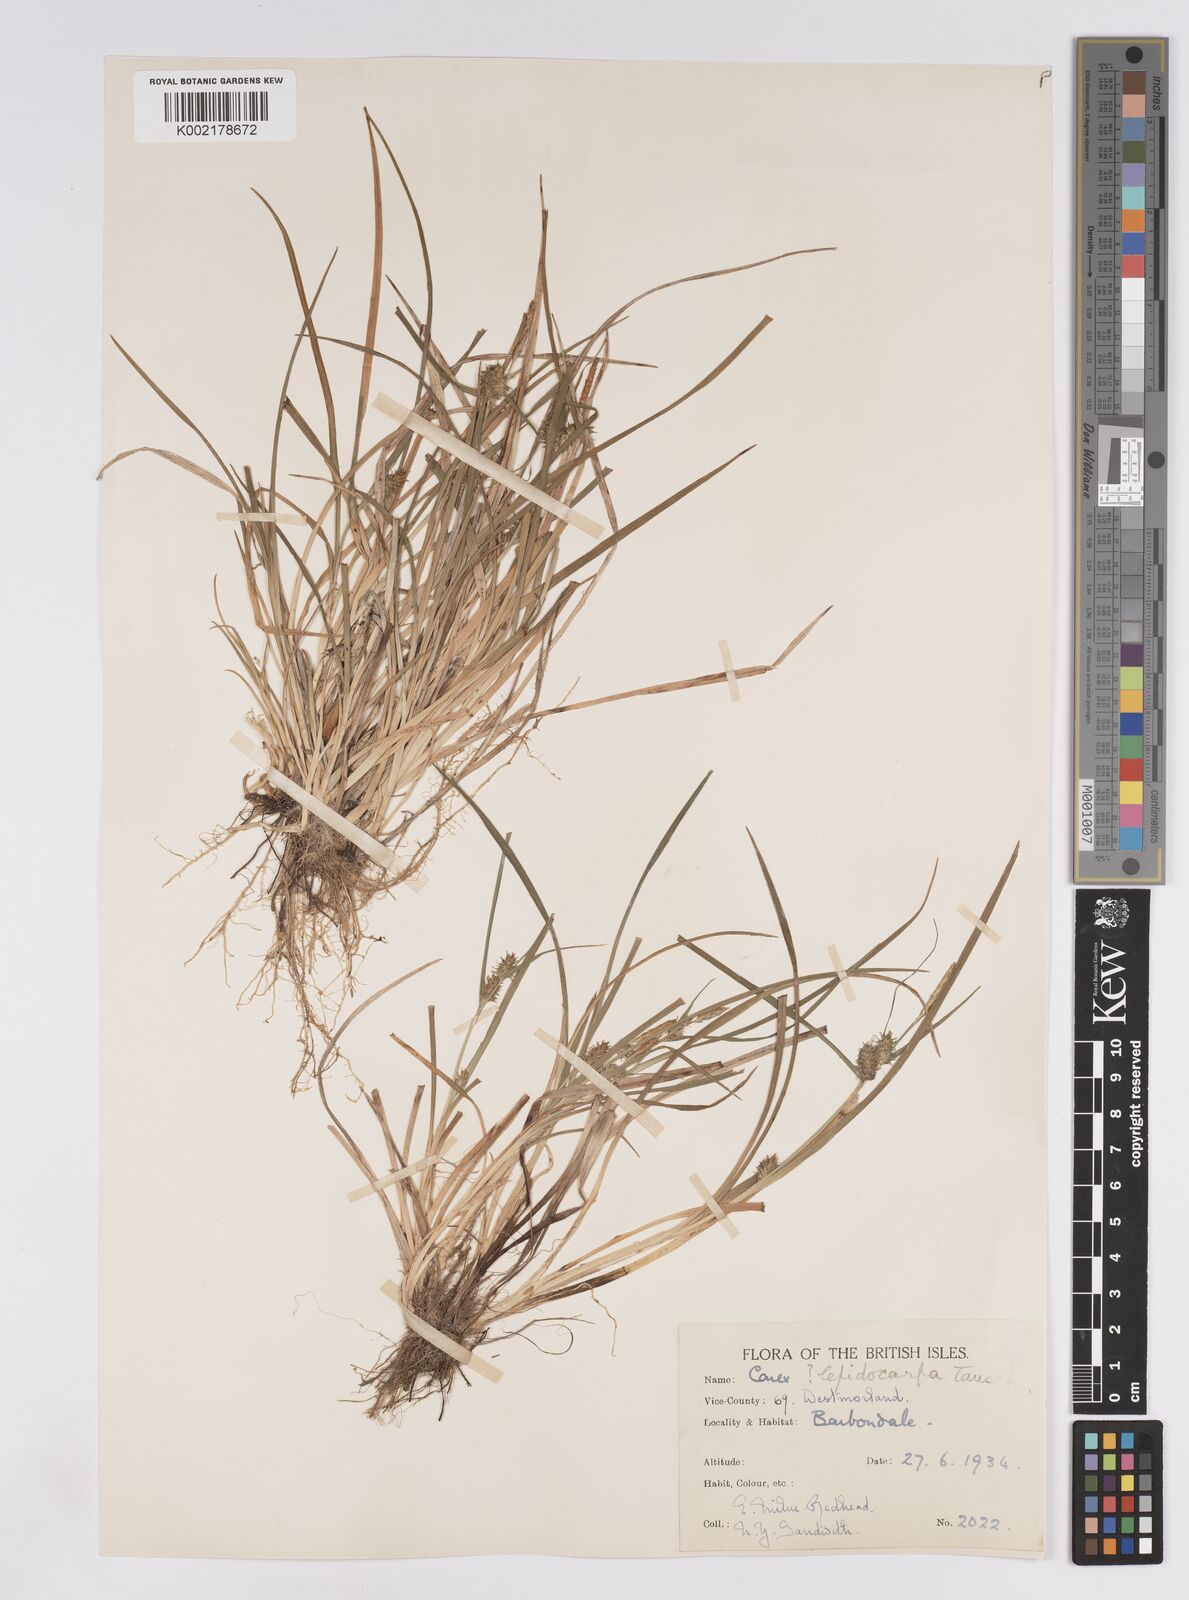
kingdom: Plantae
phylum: Tracheophyta
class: Liliopsida
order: Poales
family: Cyperaceae
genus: Carex
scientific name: Carex lepidocarpa
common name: Long-stalked yellow-sedge
